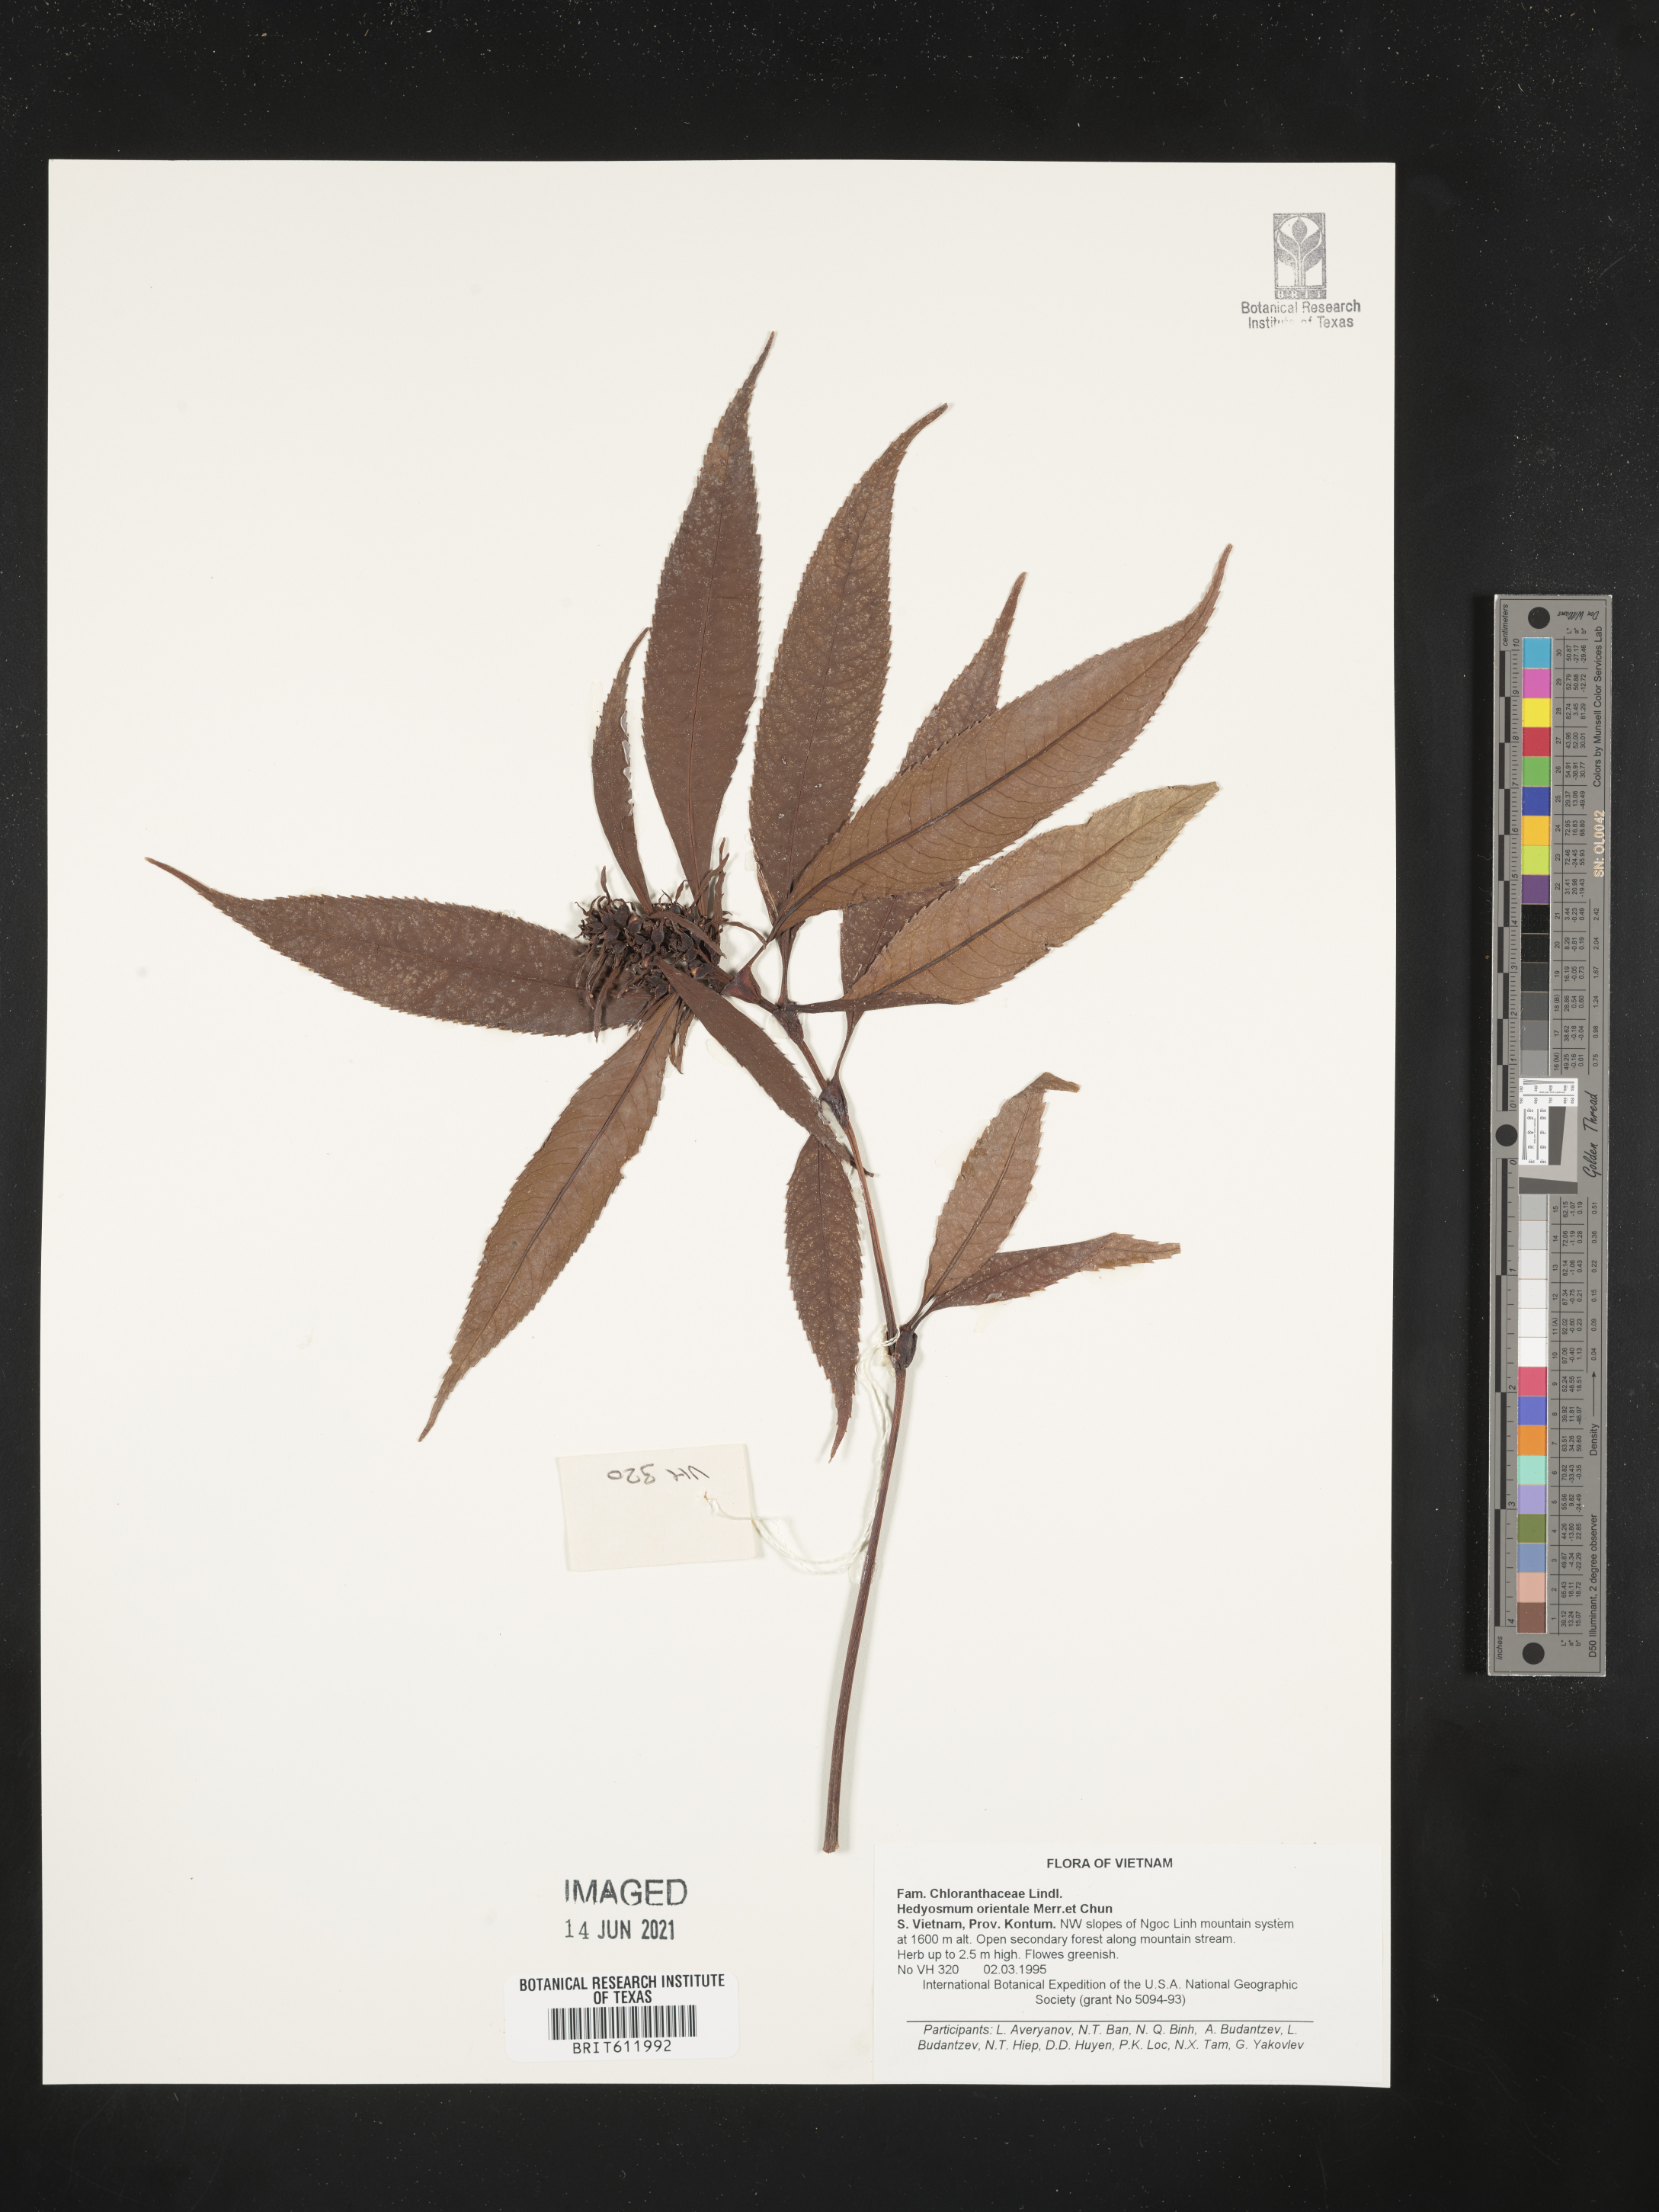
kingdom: Plantae
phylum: Tracheophyta
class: Magnoliopsida
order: Chloranthales
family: Chloranthaceae
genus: Hedyosmum
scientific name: Hedyosmum orientale
